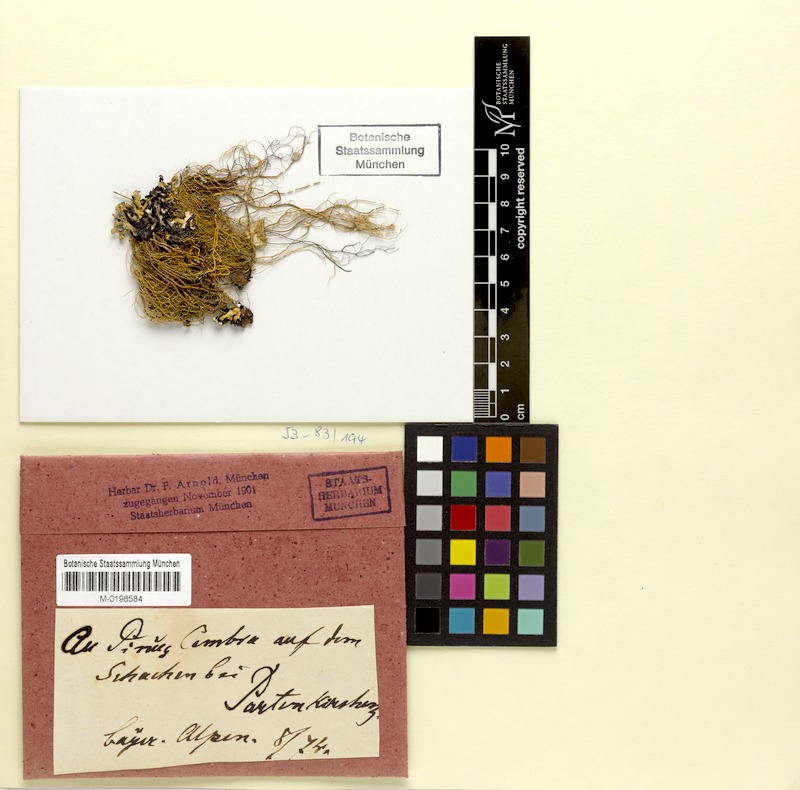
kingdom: Fungi
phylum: Ascomycota
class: Lecanoromycetes
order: Lecanorales
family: Parmeliaceae
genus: Usnea
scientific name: Usnea florida
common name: Witches' whiskers lichen
